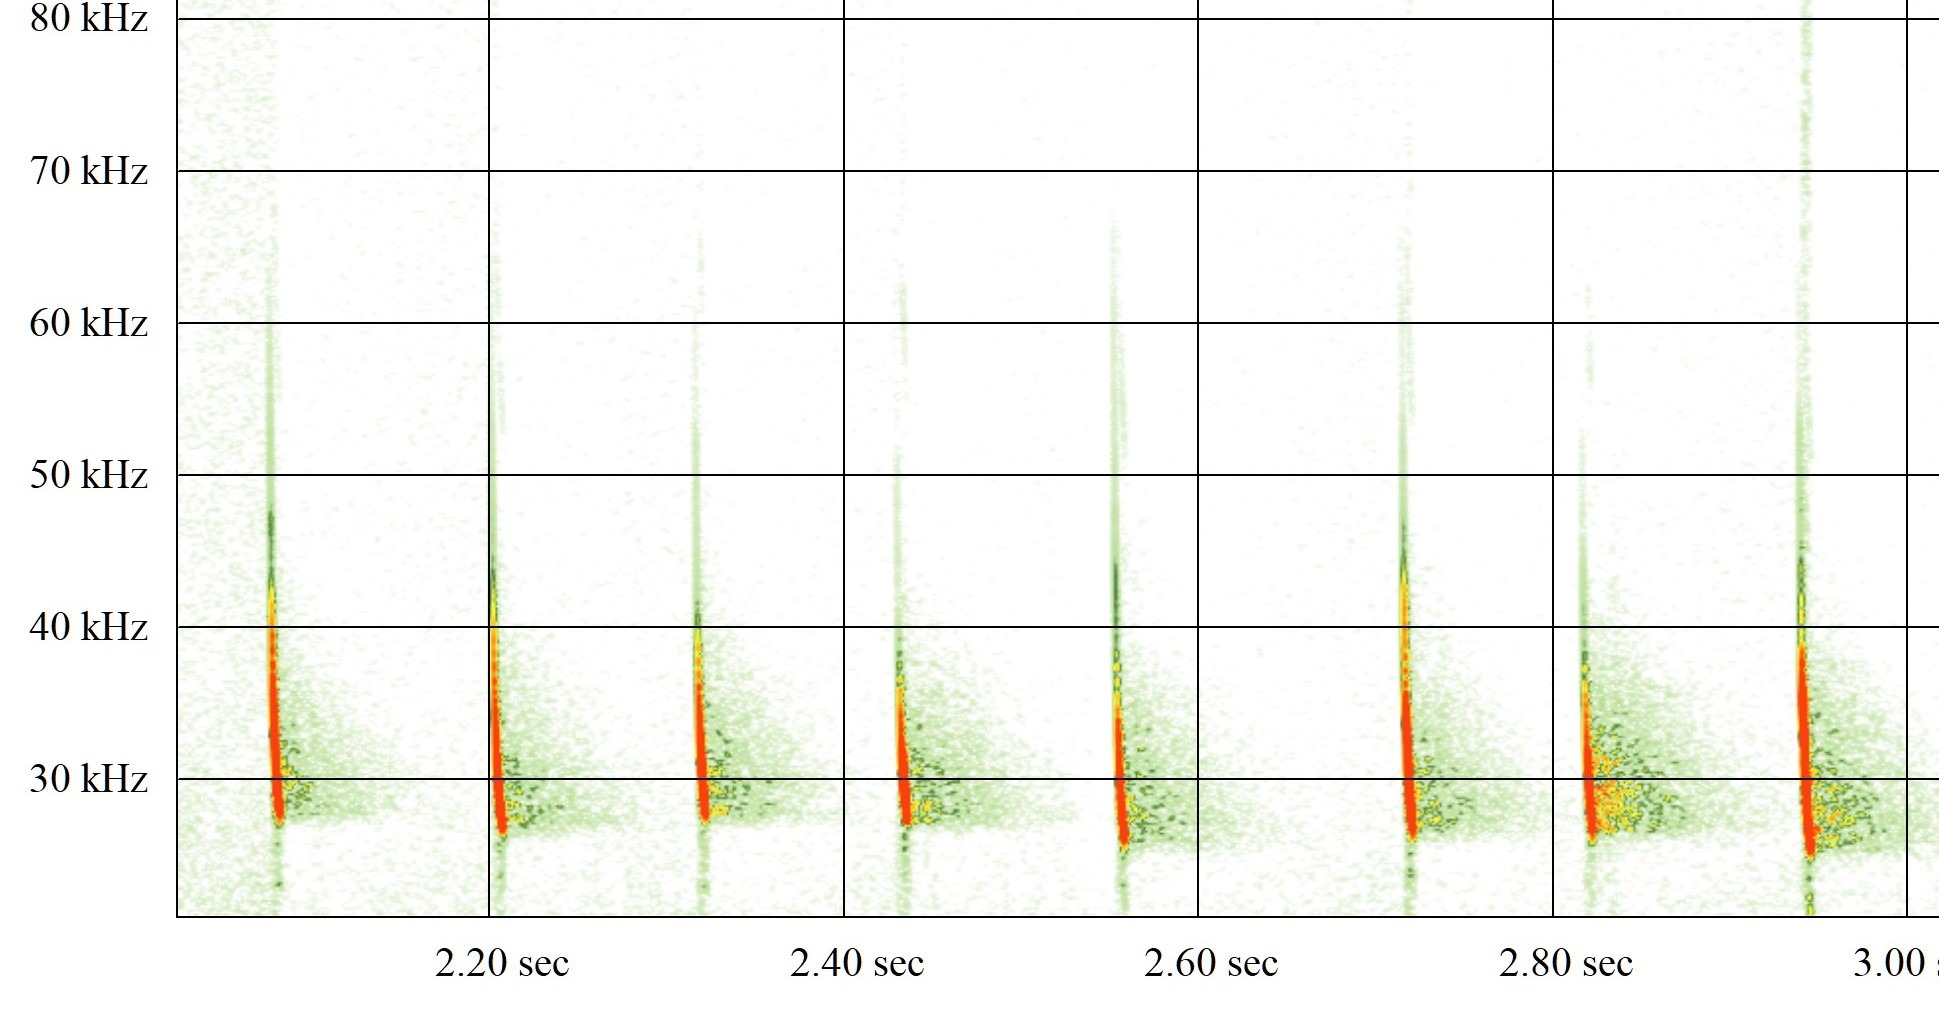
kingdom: Animalia
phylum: Chordata
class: Mammalia
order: Chiroptera
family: Vespertilionidae
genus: Eptesicus
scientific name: Eptesicus serotinus
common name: Sydflagermus
